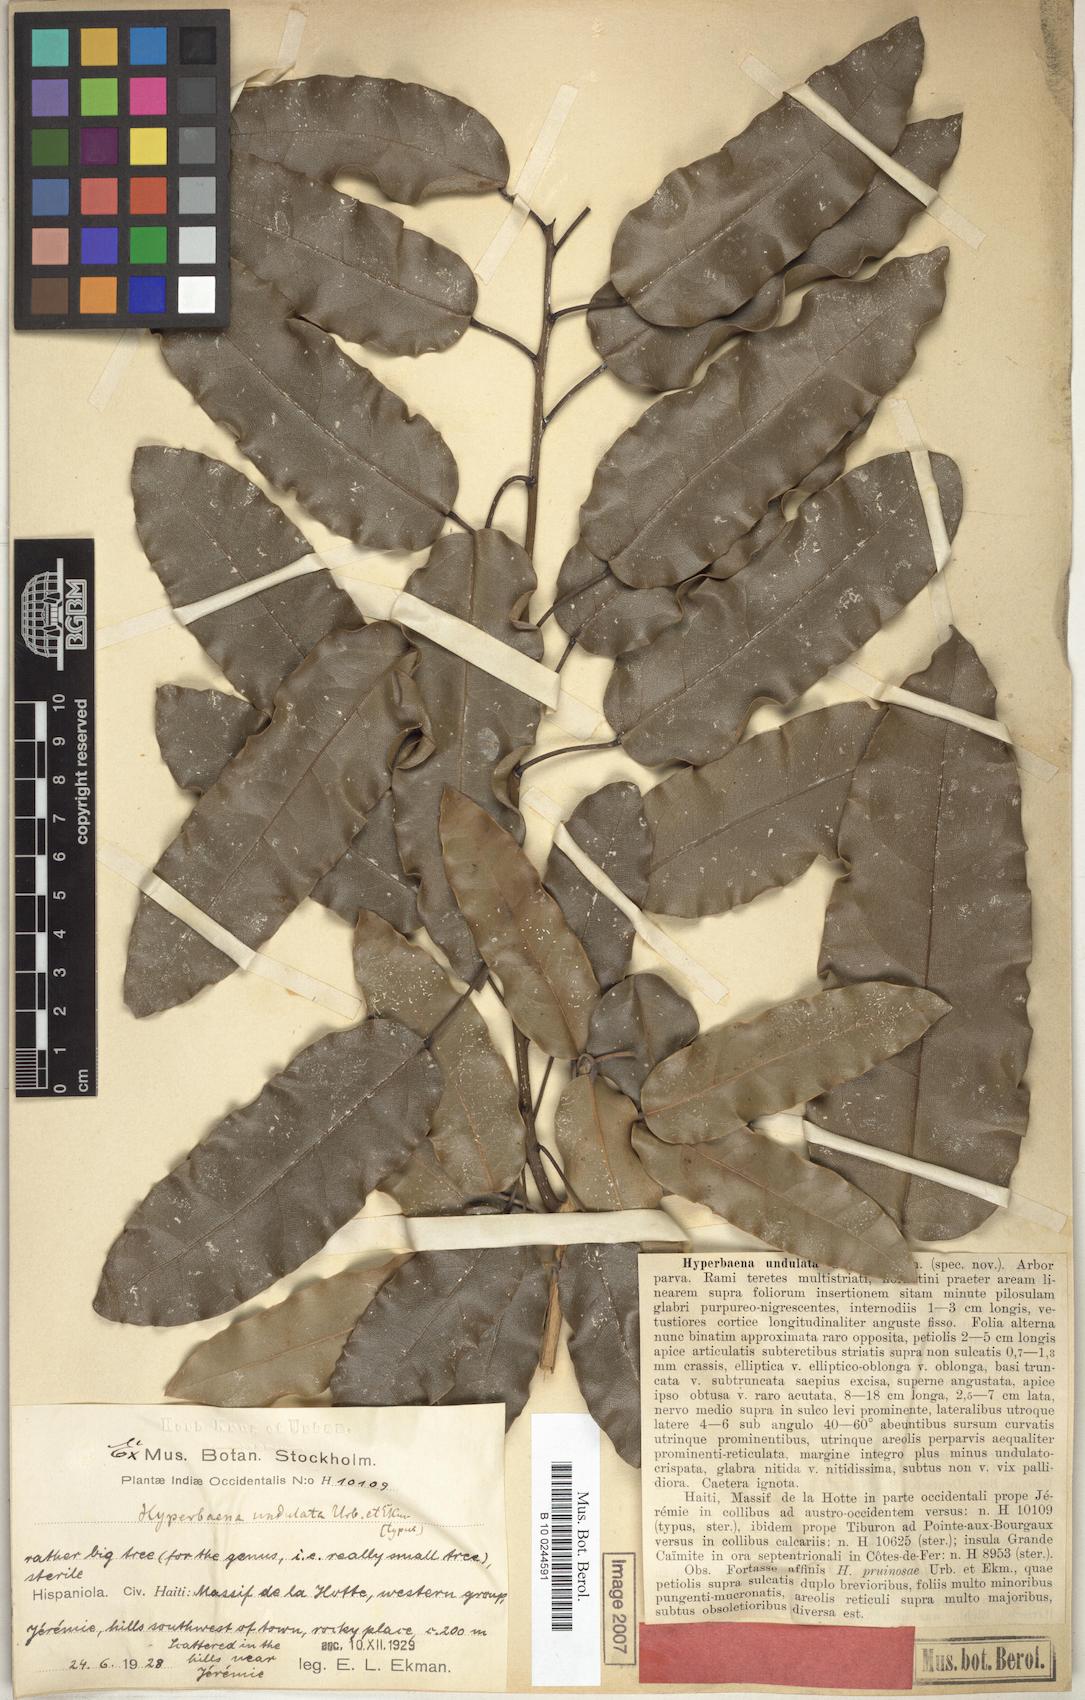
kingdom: Plantae
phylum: Tracheophyta
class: Magnoliopsida
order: Ranunculales
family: Menispermaceae
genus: Hyperbaena
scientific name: Hyperbaena undulata
